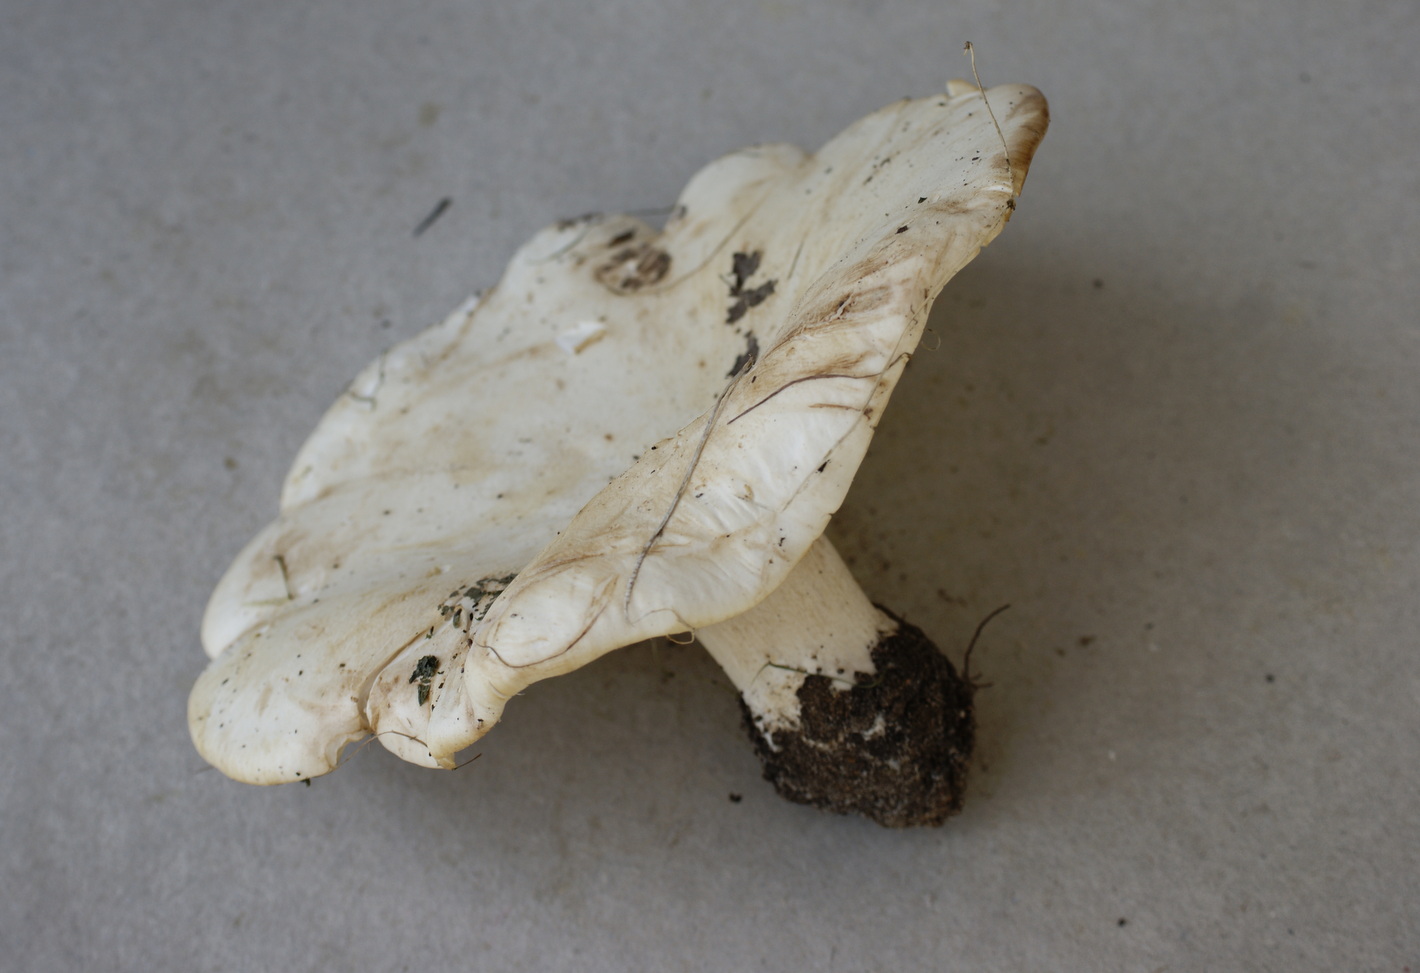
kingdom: Fungi
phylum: Basidiomycota
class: Agaricomycetes
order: Agaricales
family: Tricholomataceae
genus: Aspropaxillus
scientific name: Aspropaxillus giganteus
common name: kæmpe-tragtridderhat
